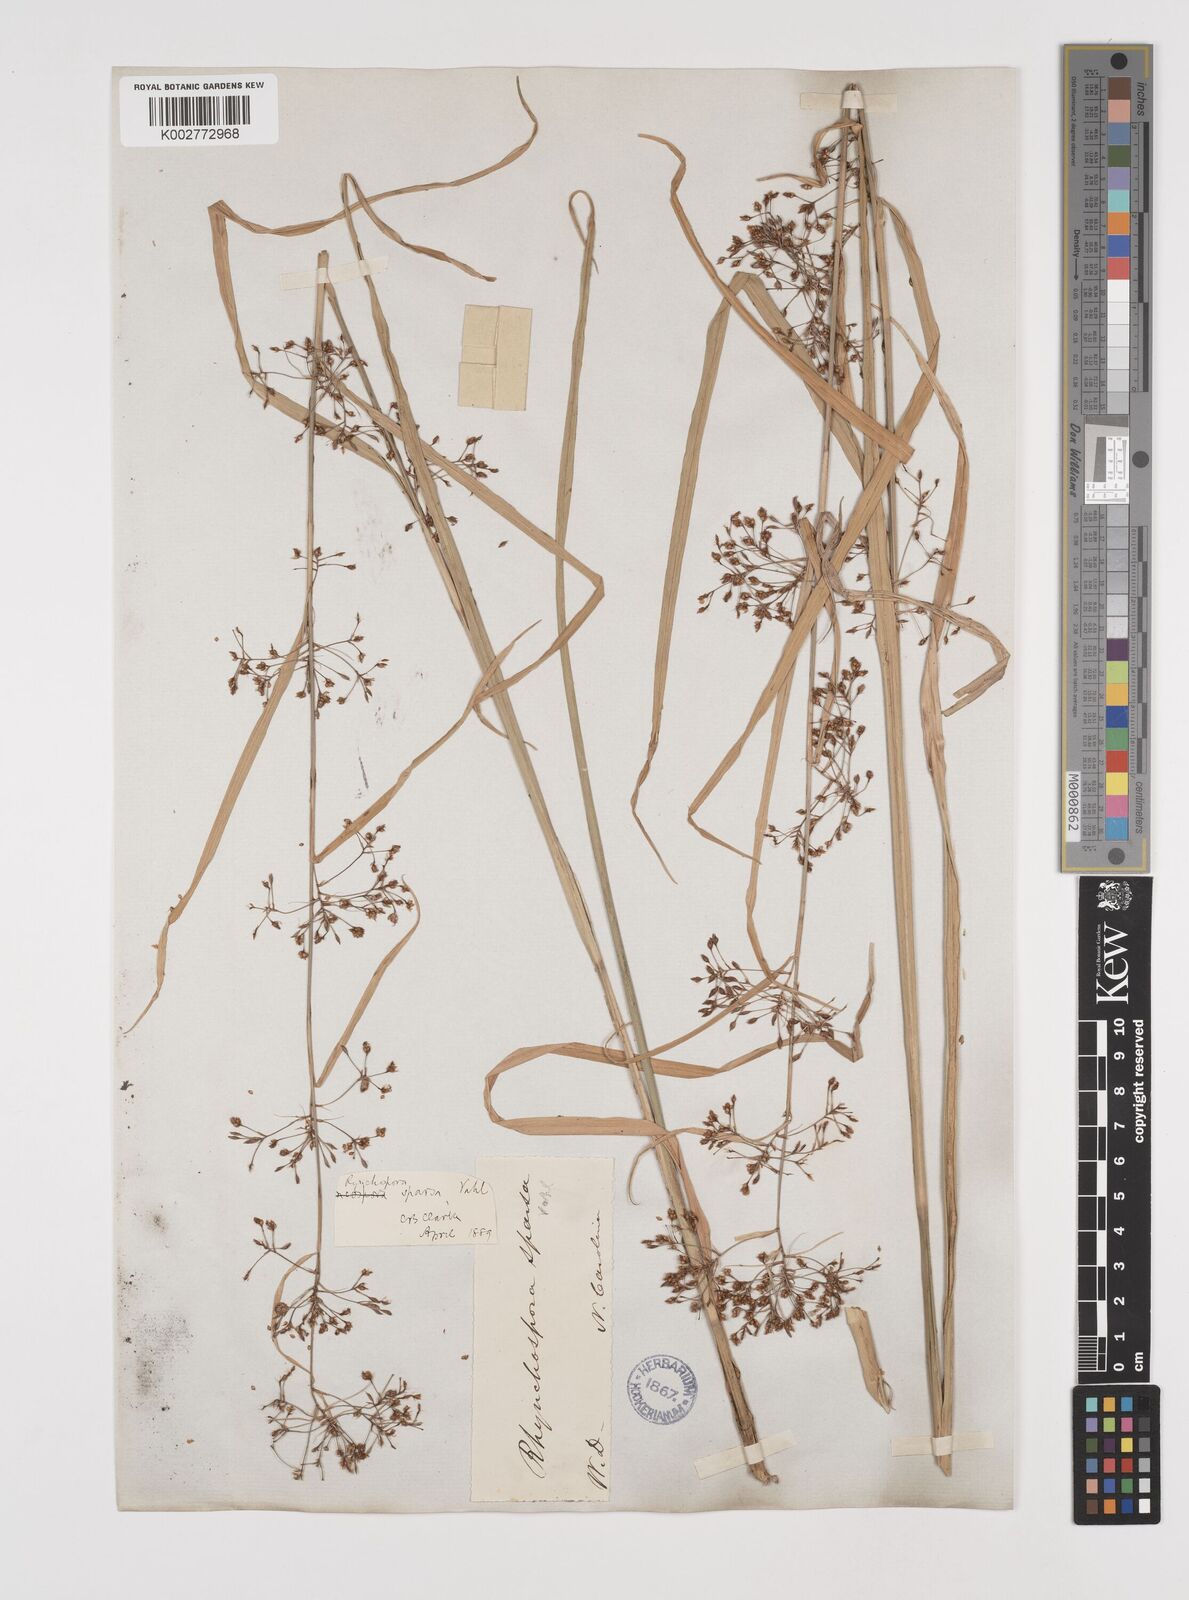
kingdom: Plantae
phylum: Tracheophyta
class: Liliopsida
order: Poales
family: Cyperaceae
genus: Rhynchospora
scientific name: Rhynchospora miliacea
